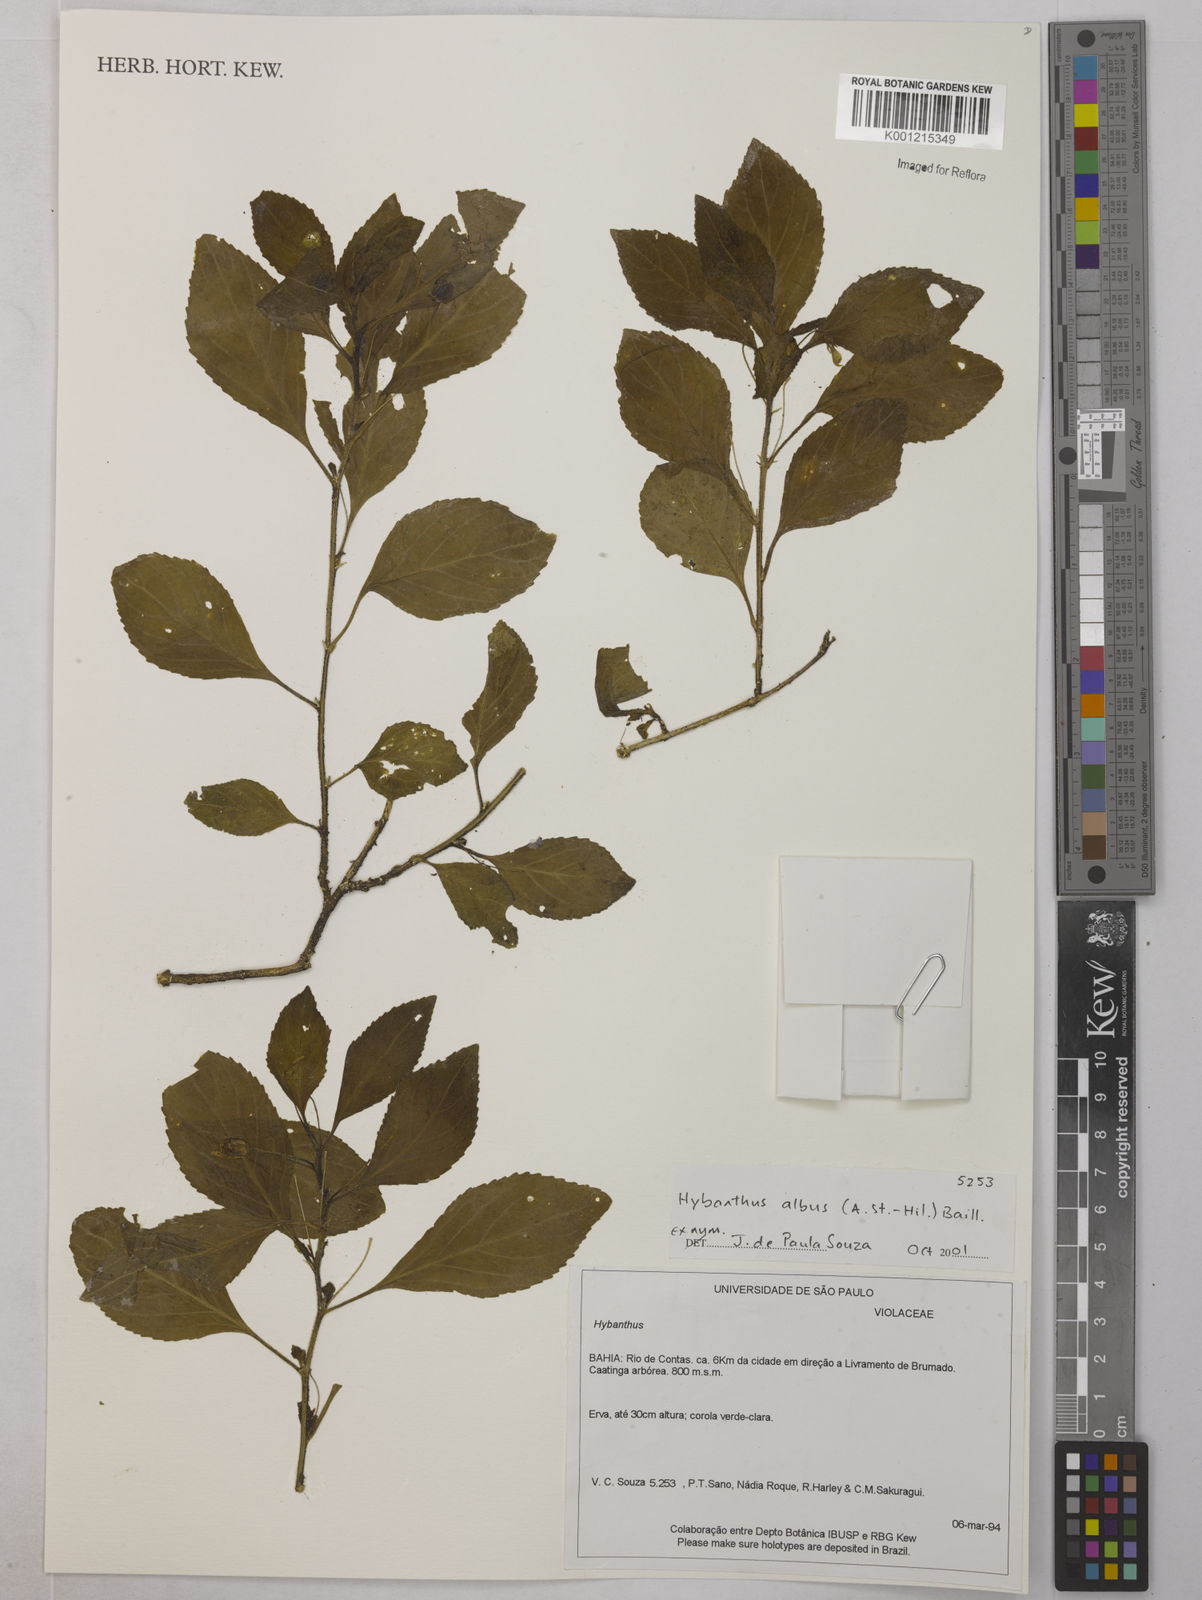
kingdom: Plantae
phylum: Tracheophyta
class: Magnoliopsida
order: Malpighiales
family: Violaceae
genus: Hybanthus
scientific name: Hybanthus albus
